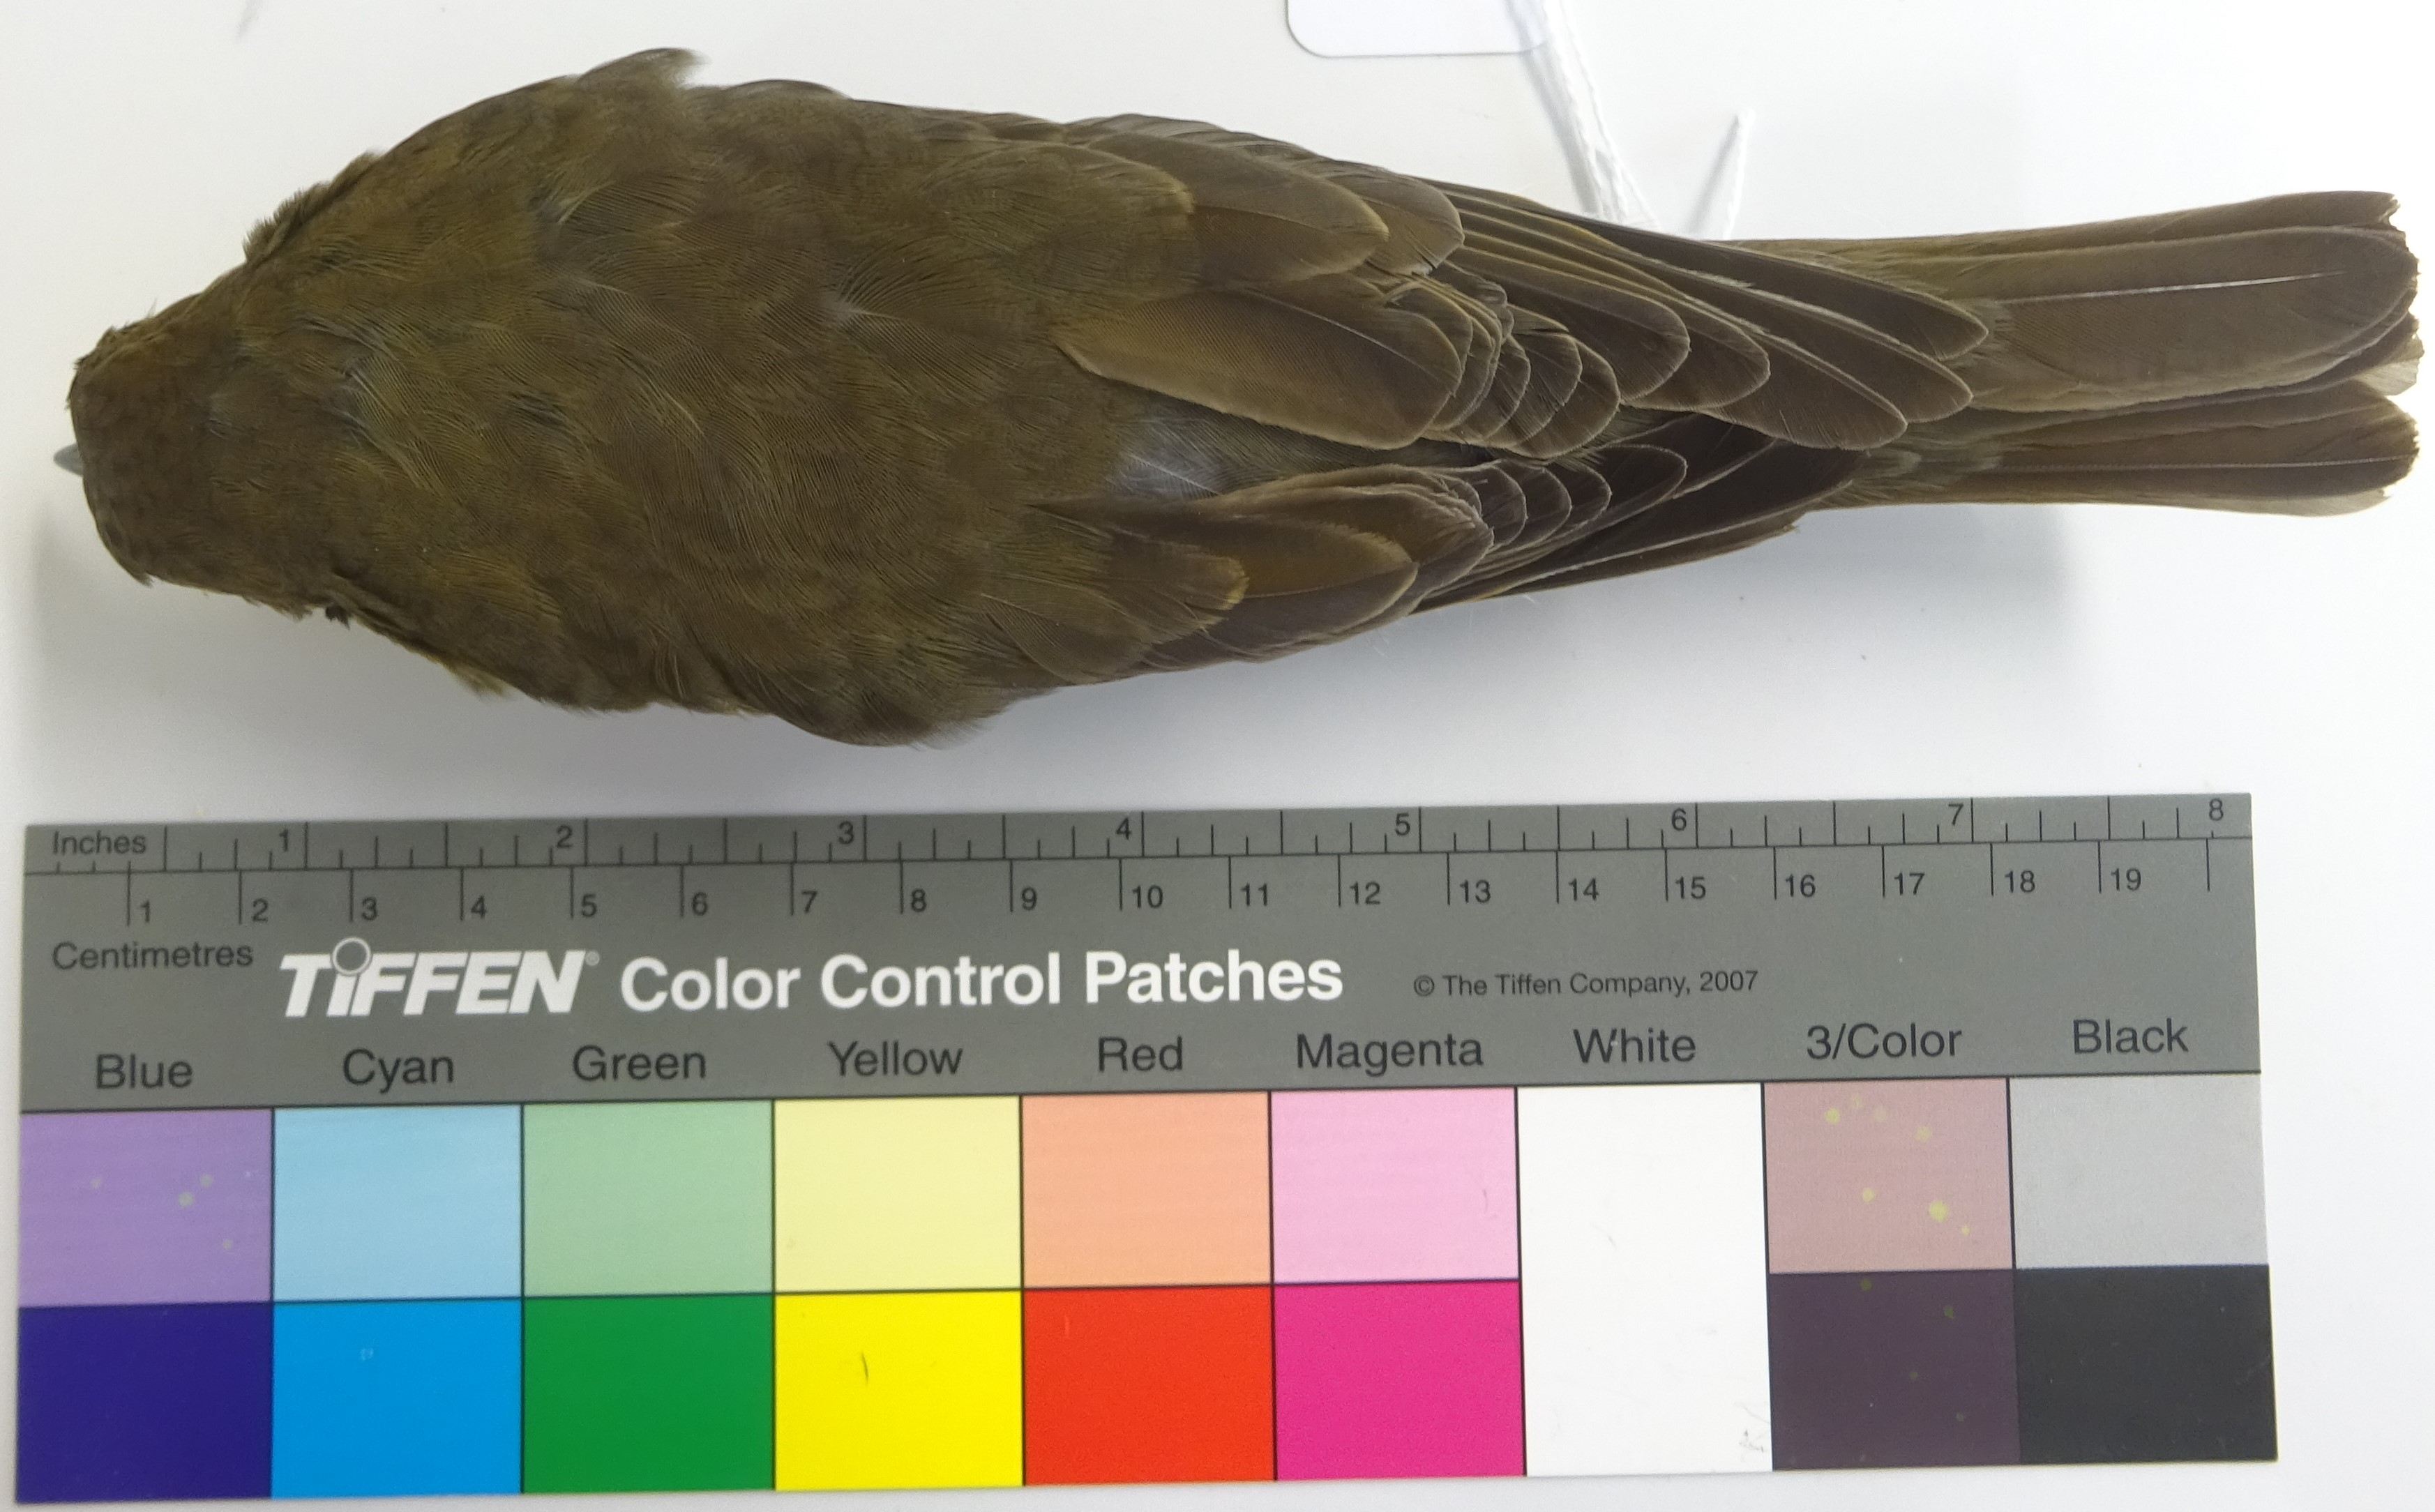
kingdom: Animalia
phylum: Chordata
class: Aves
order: Passeriformes
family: Turdidae
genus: Turdus
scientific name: Turdus philomelos
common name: Song thrush
